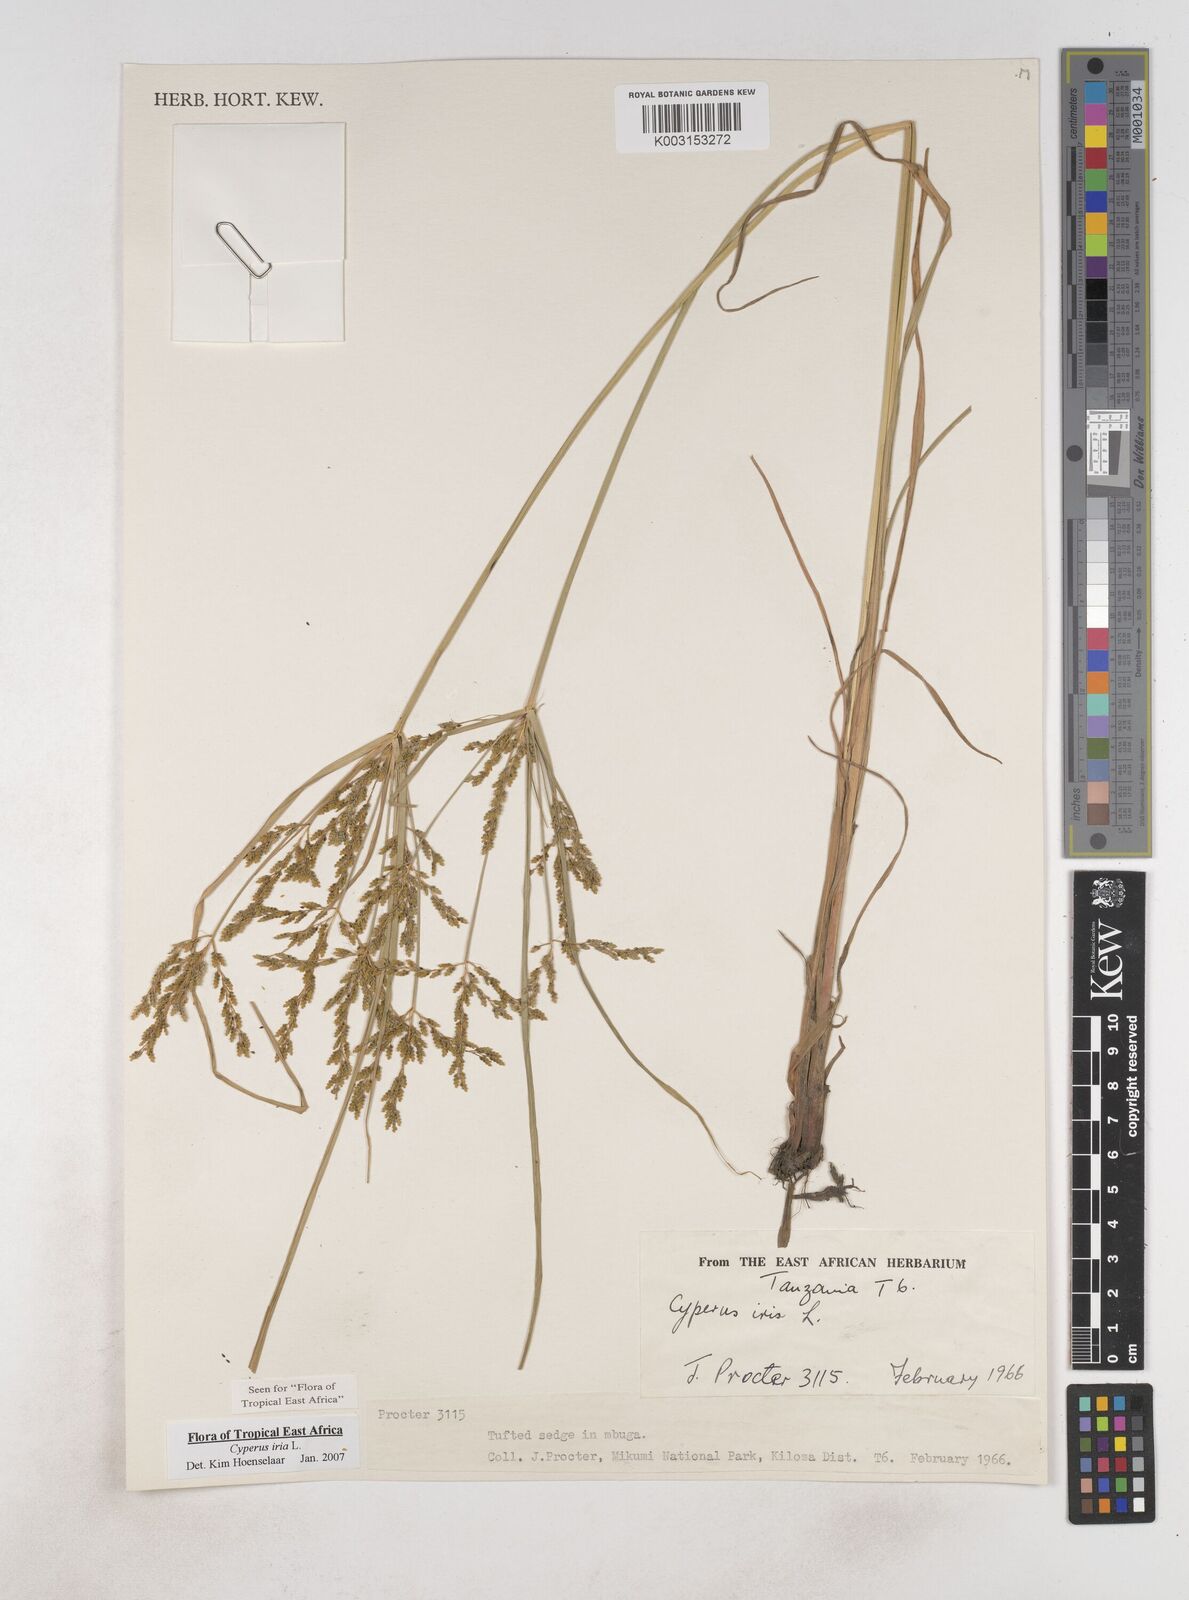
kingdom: Plantae
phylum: Tracheophyta
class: Liliopsida
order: Poales
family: Cyperaceae
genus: Cyperus
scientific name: Cyperus iria
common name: Ricefield flatsedge
